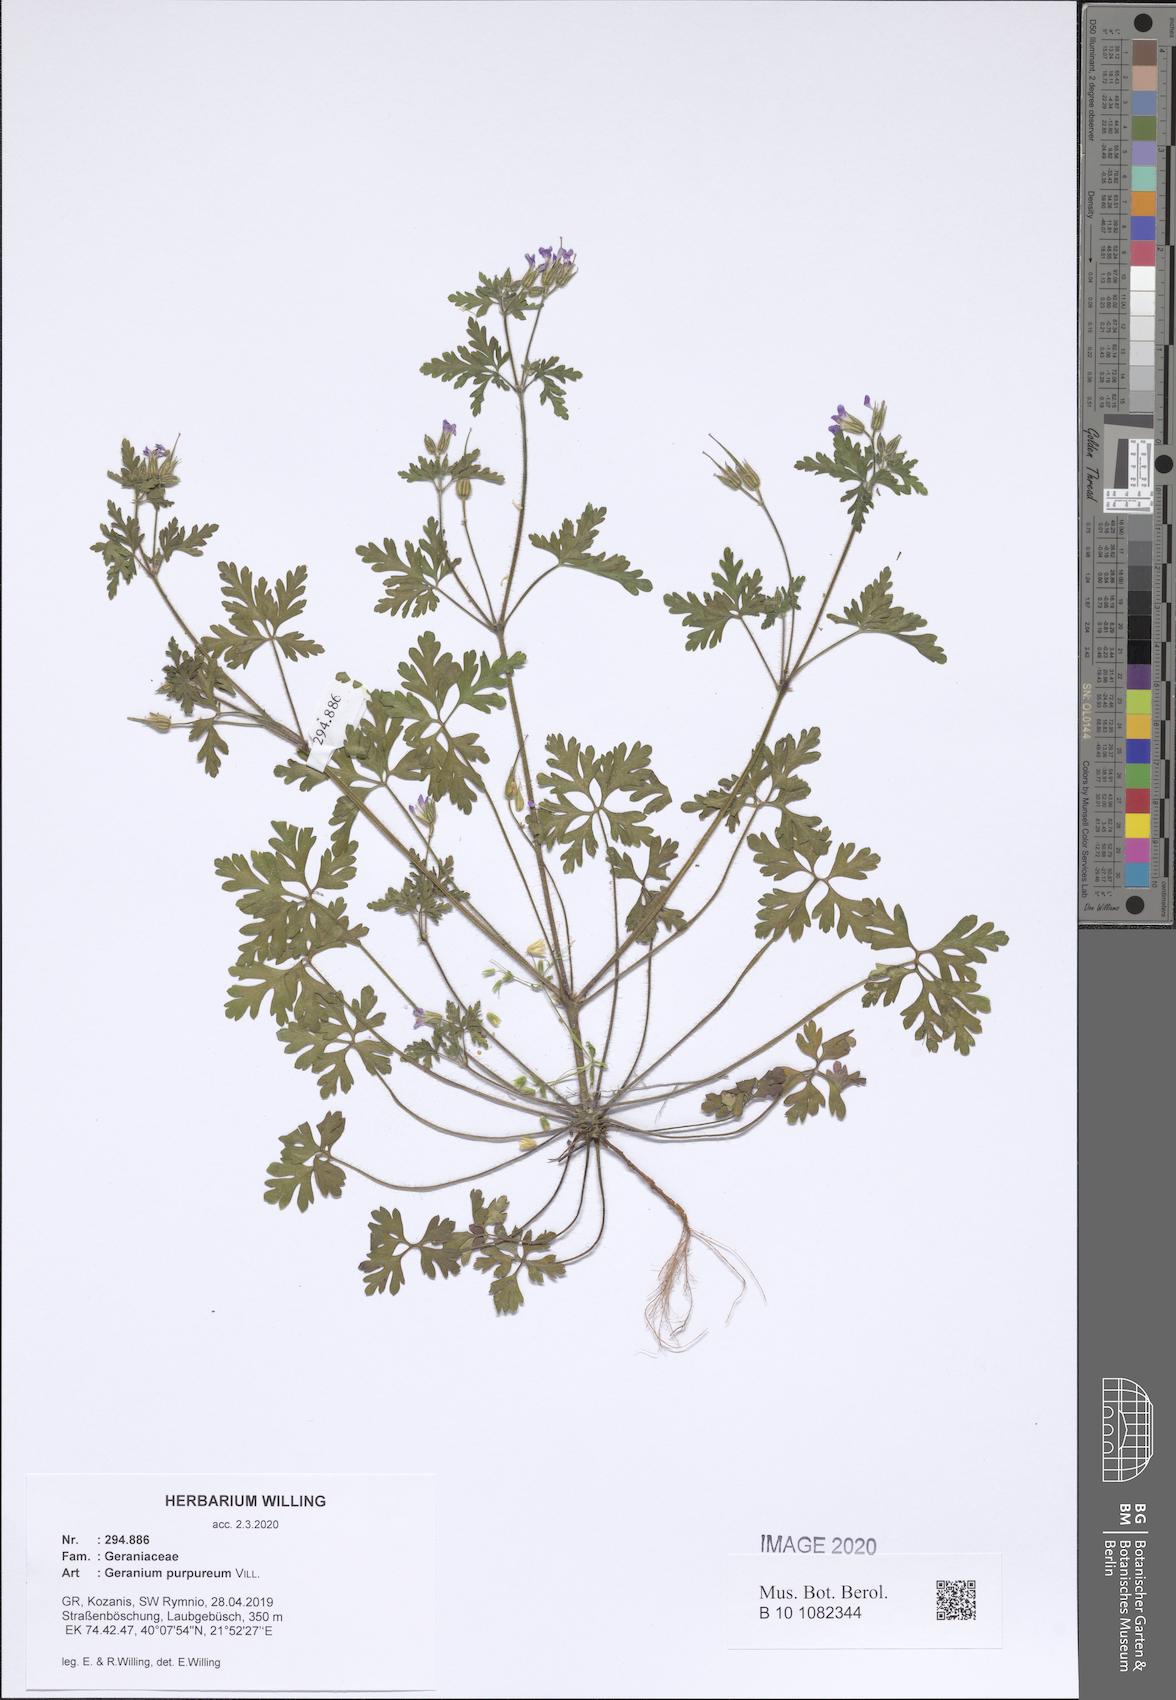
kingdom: Plantae
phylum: Tracheophyta
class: Magnoliopsida
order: Geraniales
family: Geraniaceae
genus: Geranium
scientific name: Geranium purpureum
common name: Little-robin
